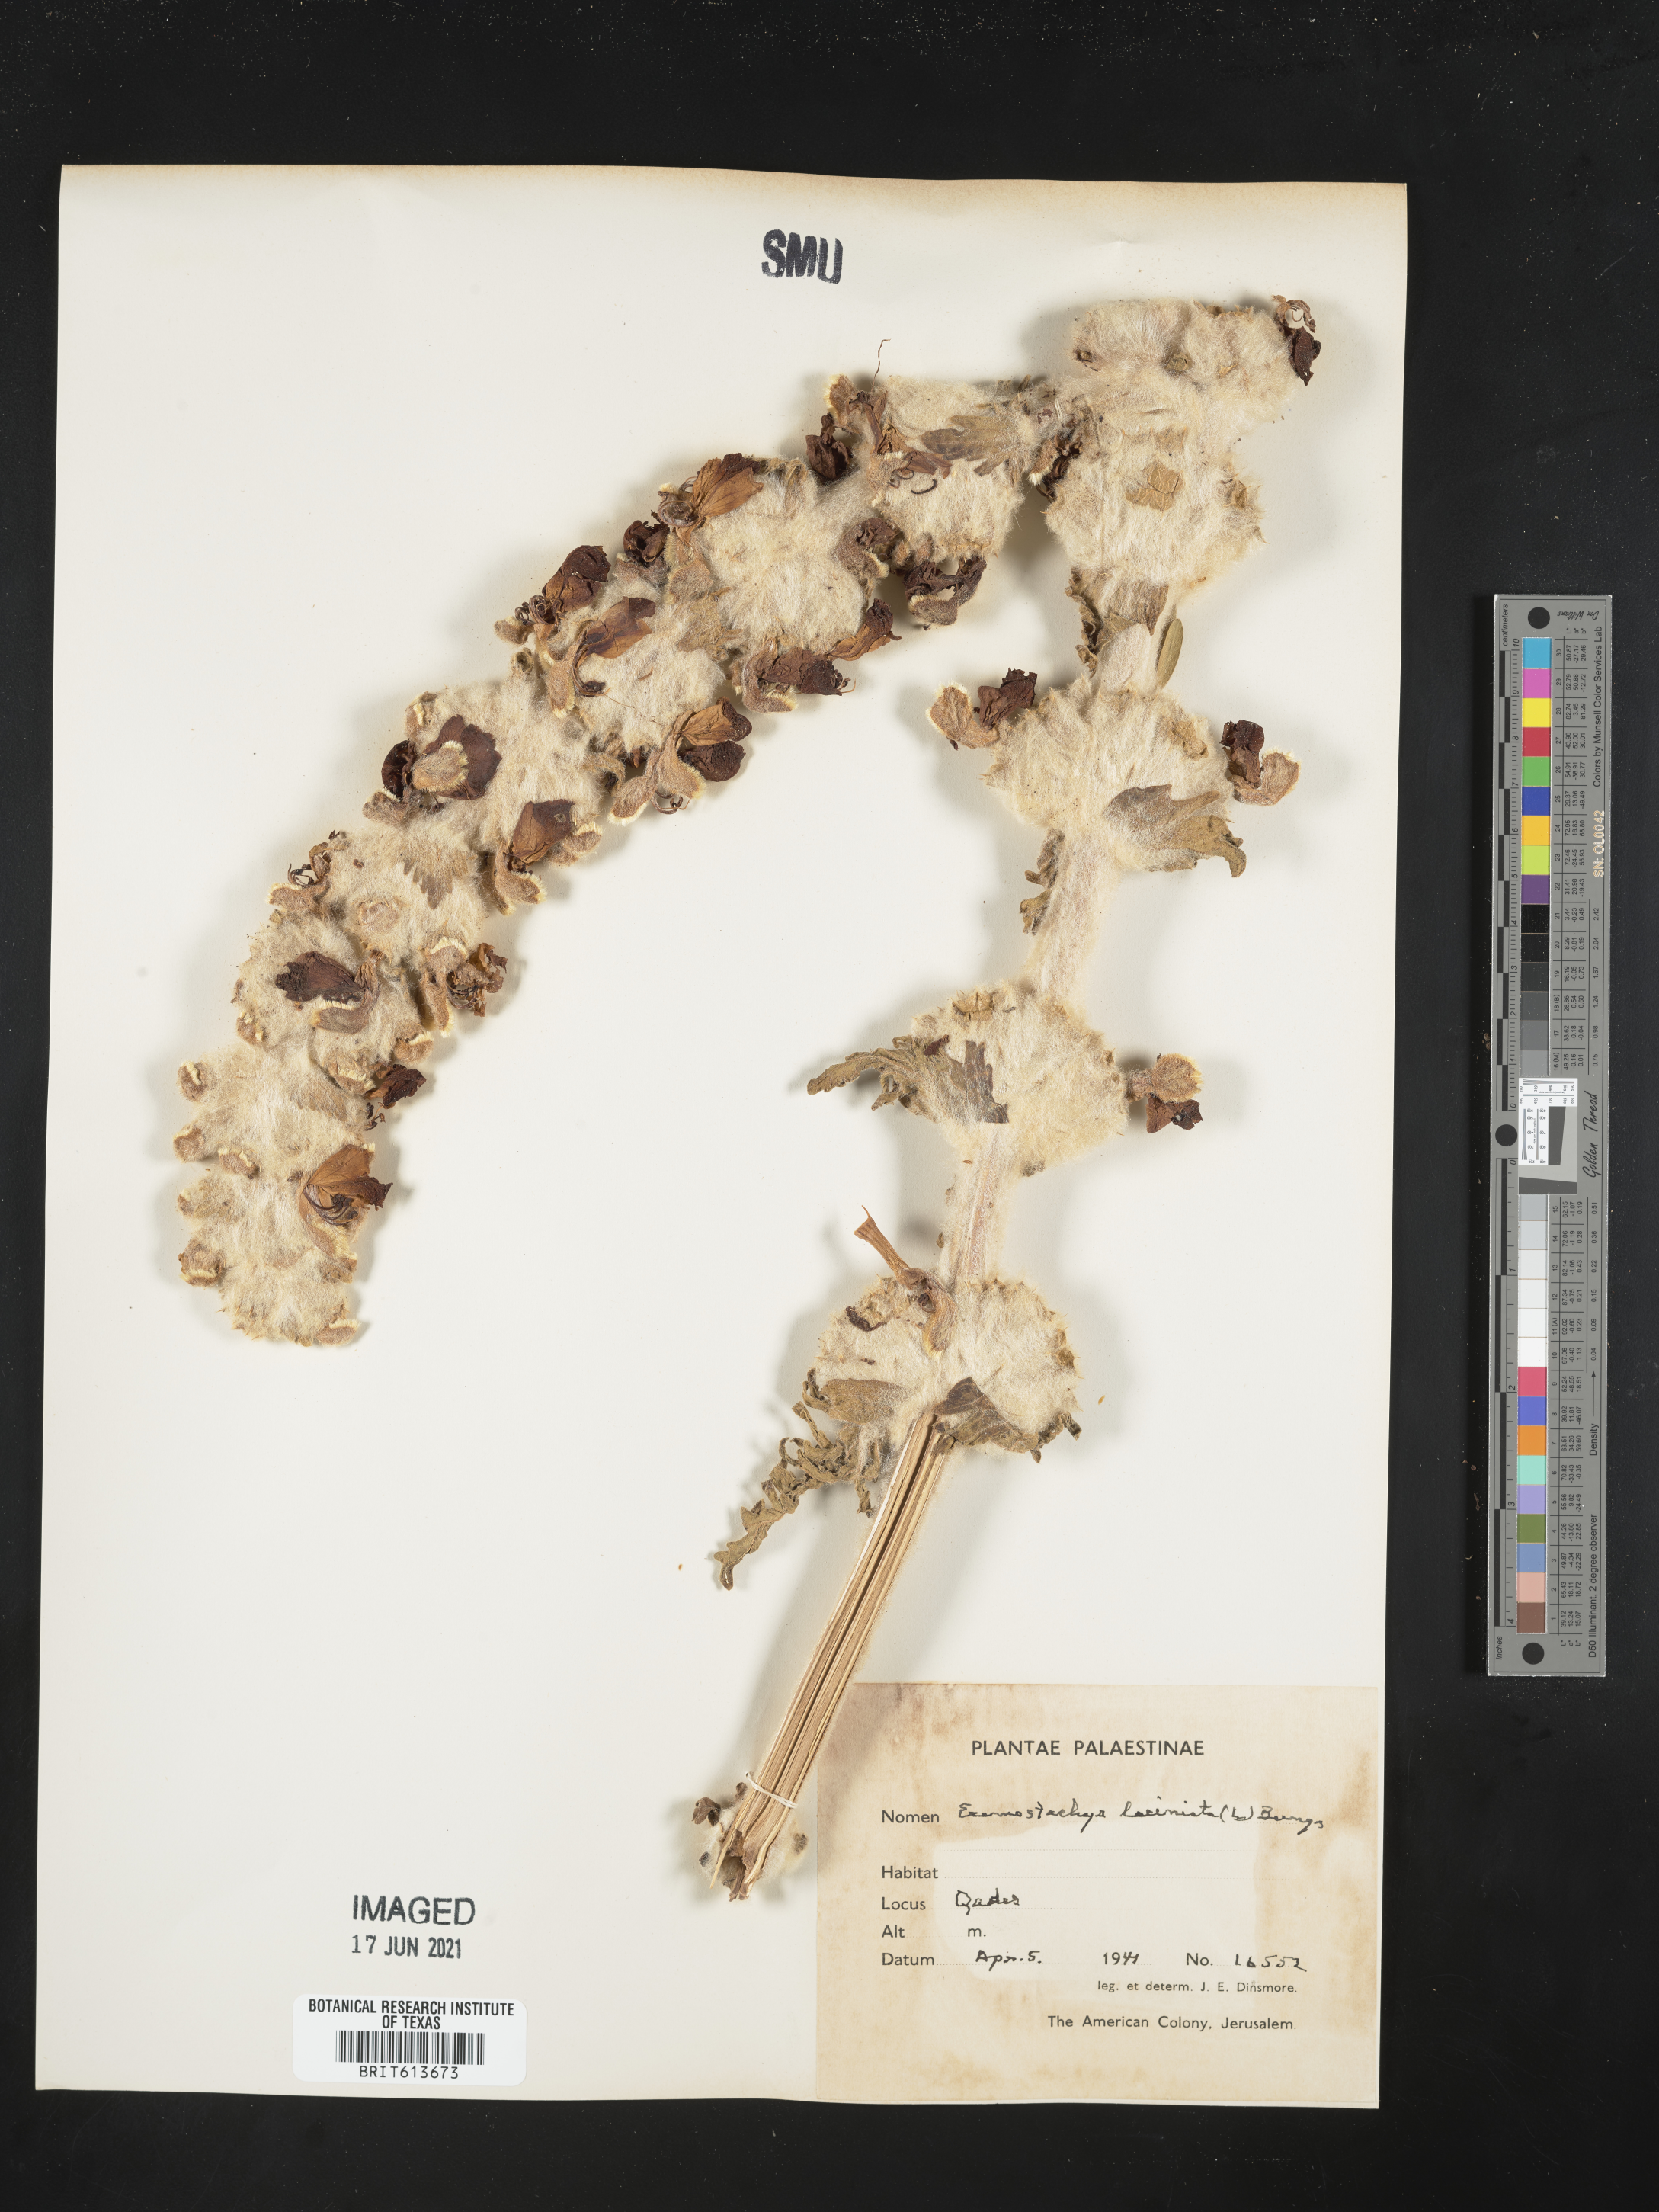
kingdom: Plantae
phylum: Tracheophyta
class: Magnoliopsida
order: Lamiales
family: Lamiaceae
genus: Phlomoides
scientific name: Phlomoides laciniata
